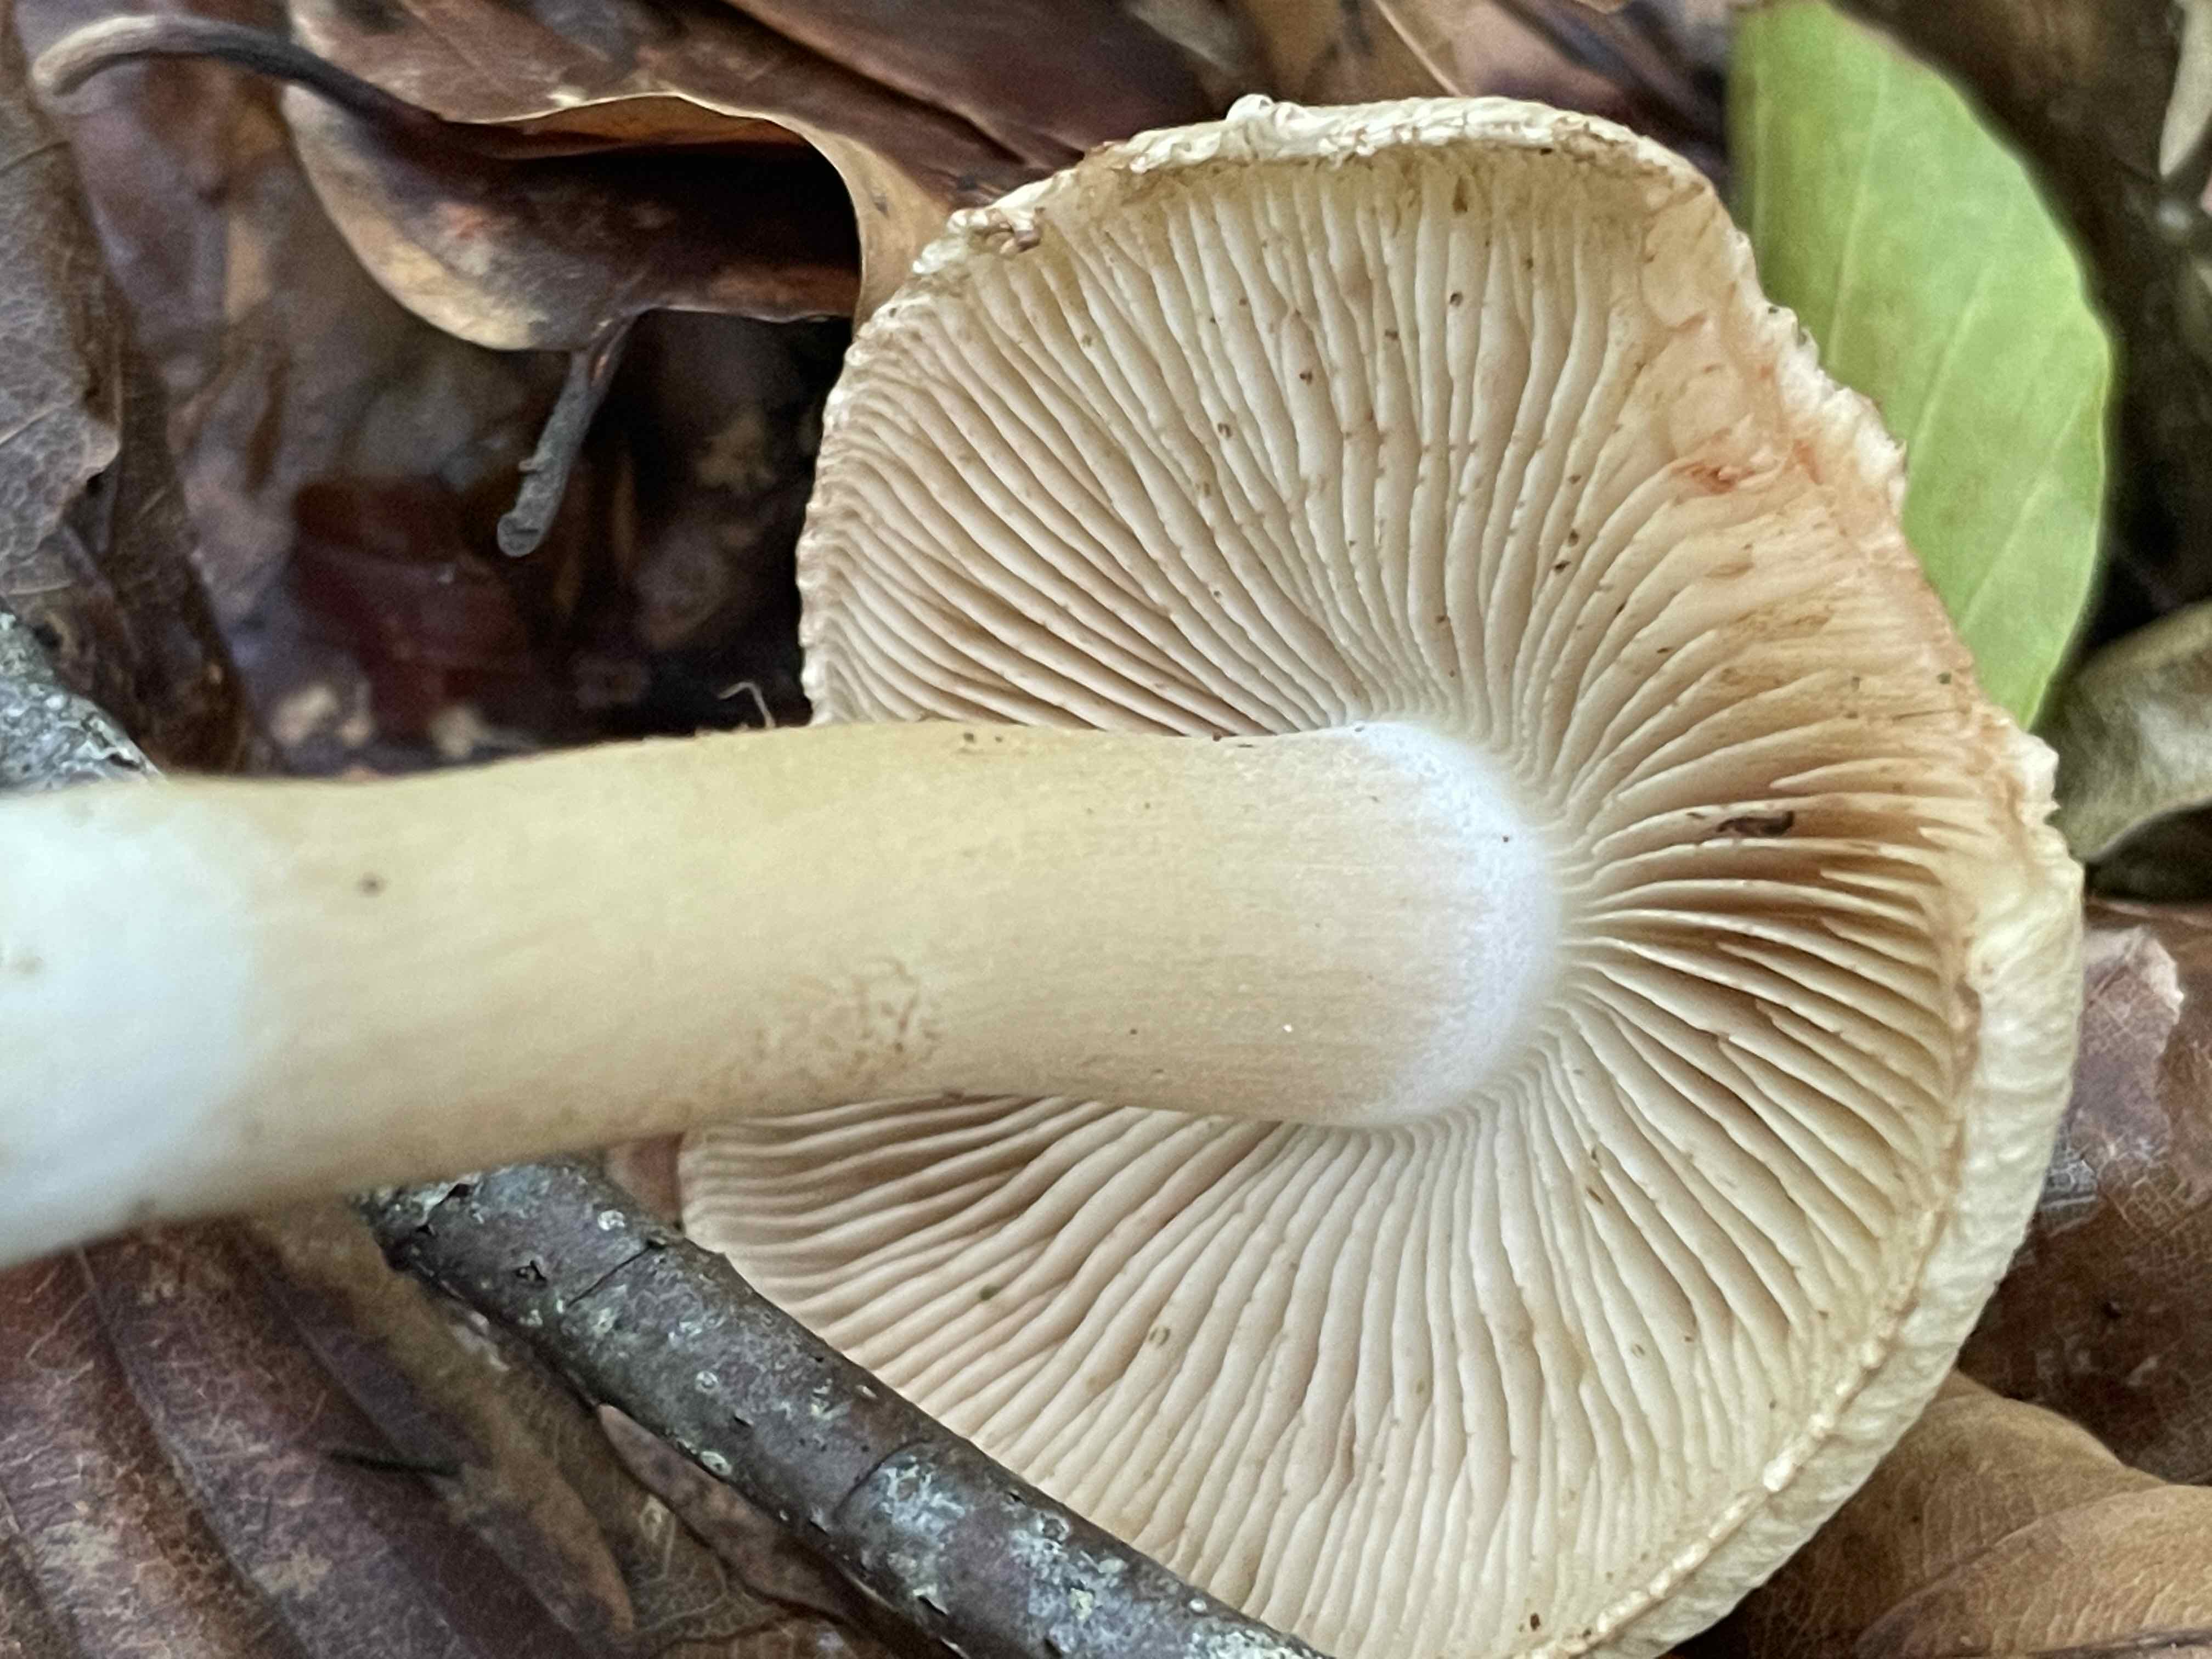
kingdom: Fungi
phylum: Basidiomycota
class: Agaricomycetes
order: Agaricales
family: Inocybaceae
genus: Inocybe
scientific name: Inocybe fraudans
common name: pæreduftende trævlhat
